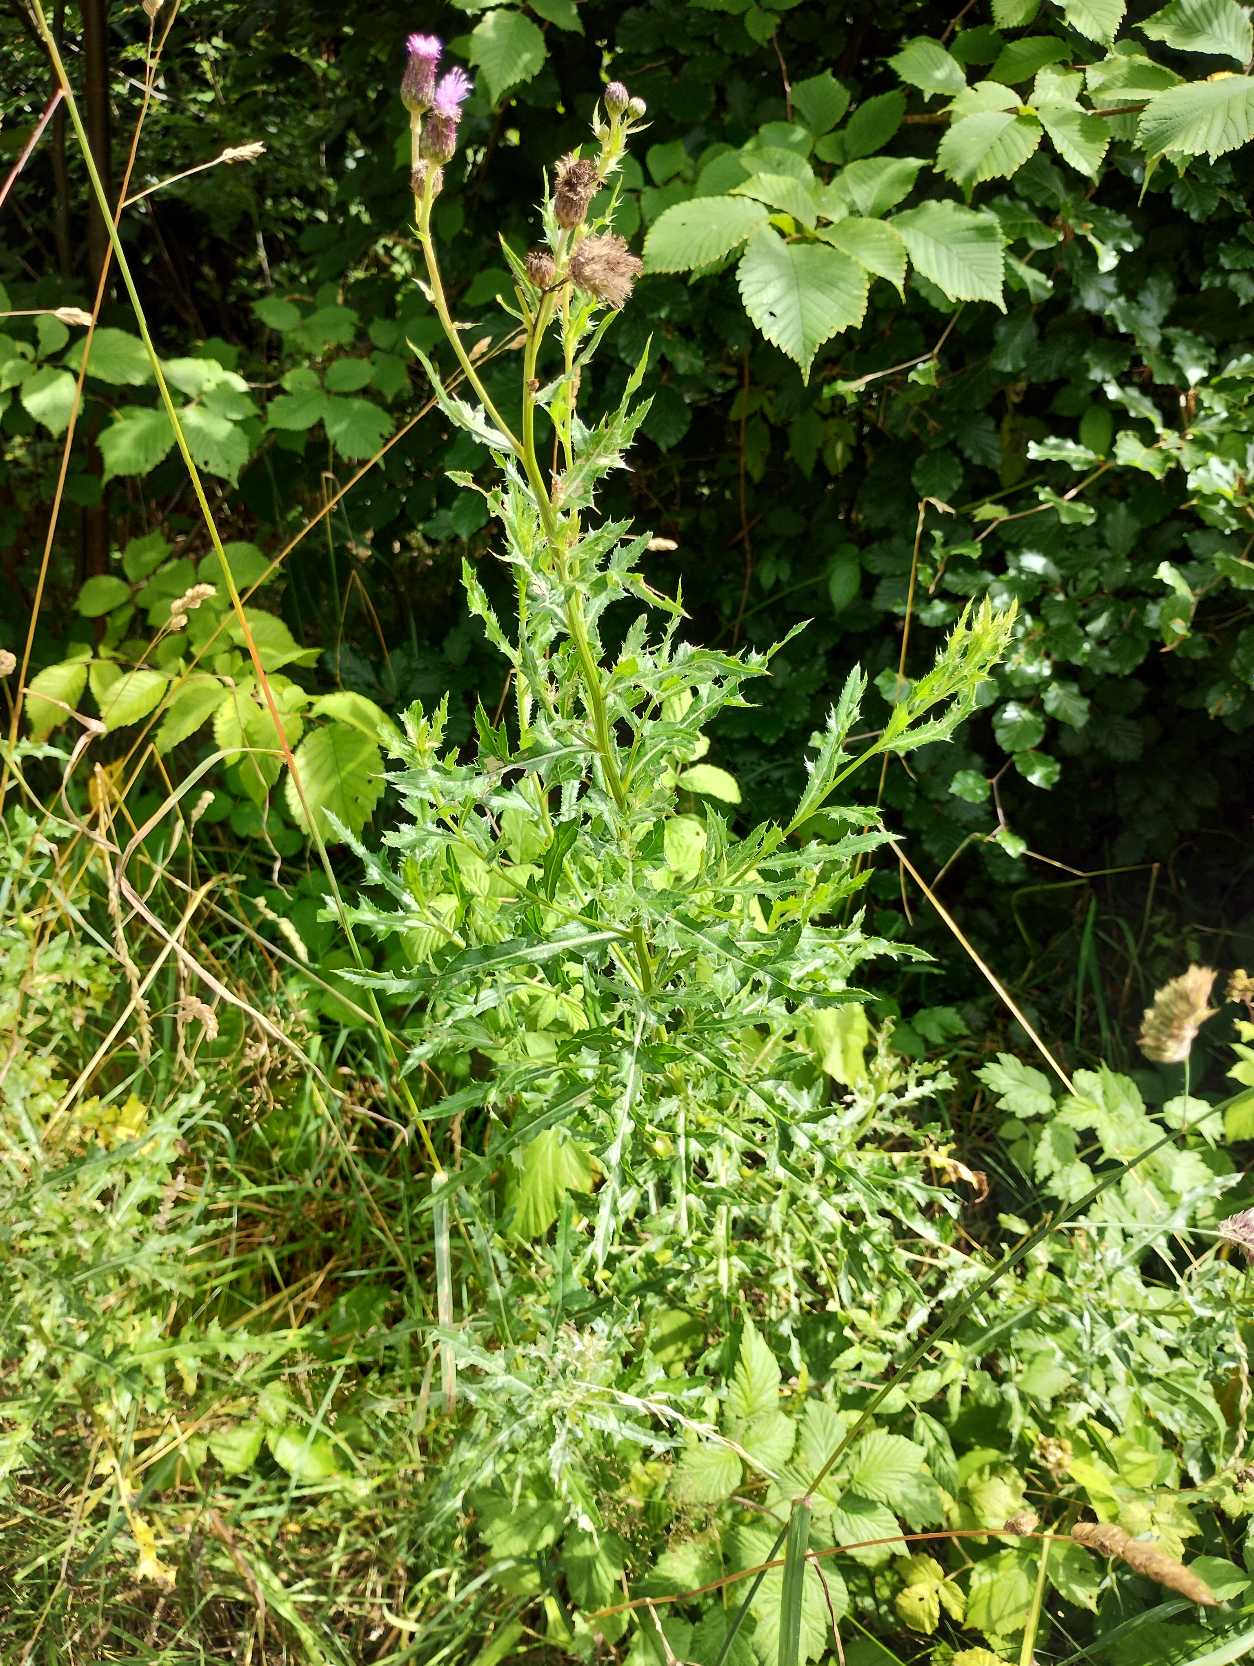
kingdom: Plantae
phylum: Tracheophyta
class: Magnoliopsida
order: Asterales
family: Asteraceae
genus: Cirsium
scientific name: Cirsium arvense
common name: Ager-tidsel
